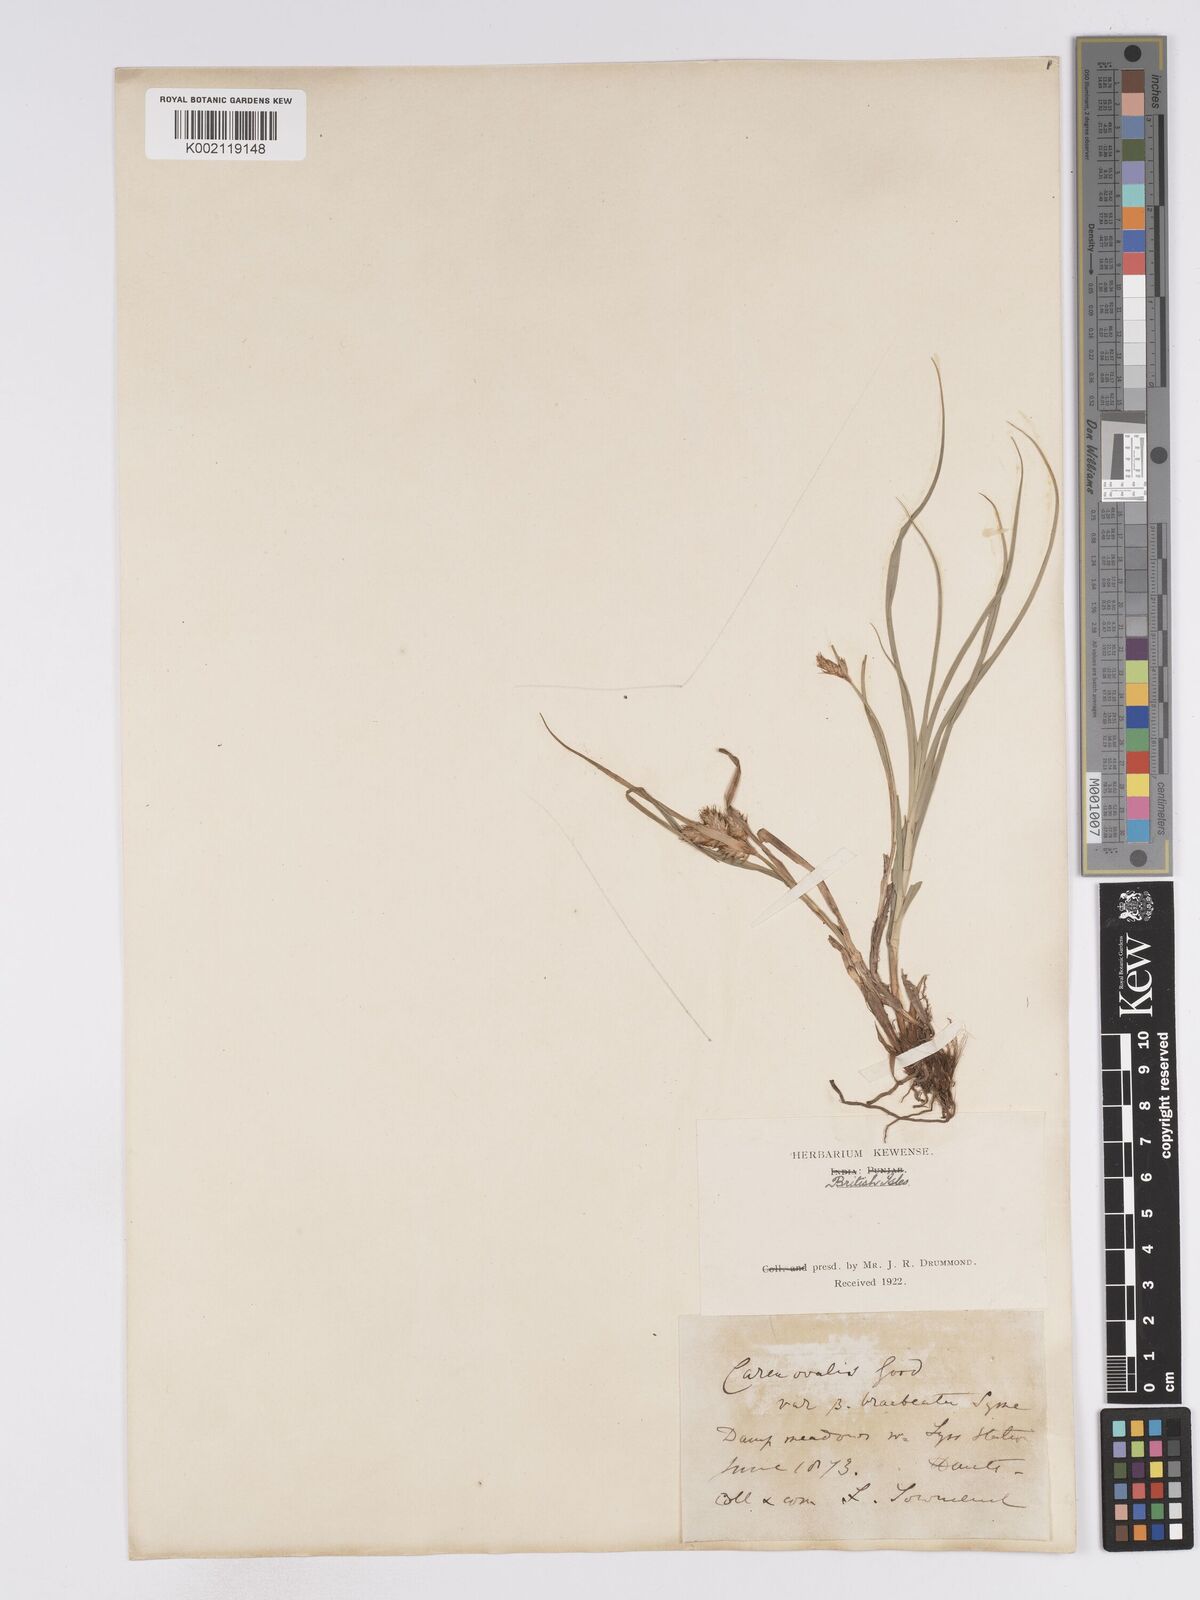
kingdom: Plantae
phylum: Tracheophyta
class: Liliopsida
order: Poales
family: Cyperaceae
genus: Carex
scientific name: Carex leporina
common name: Oval sedge
